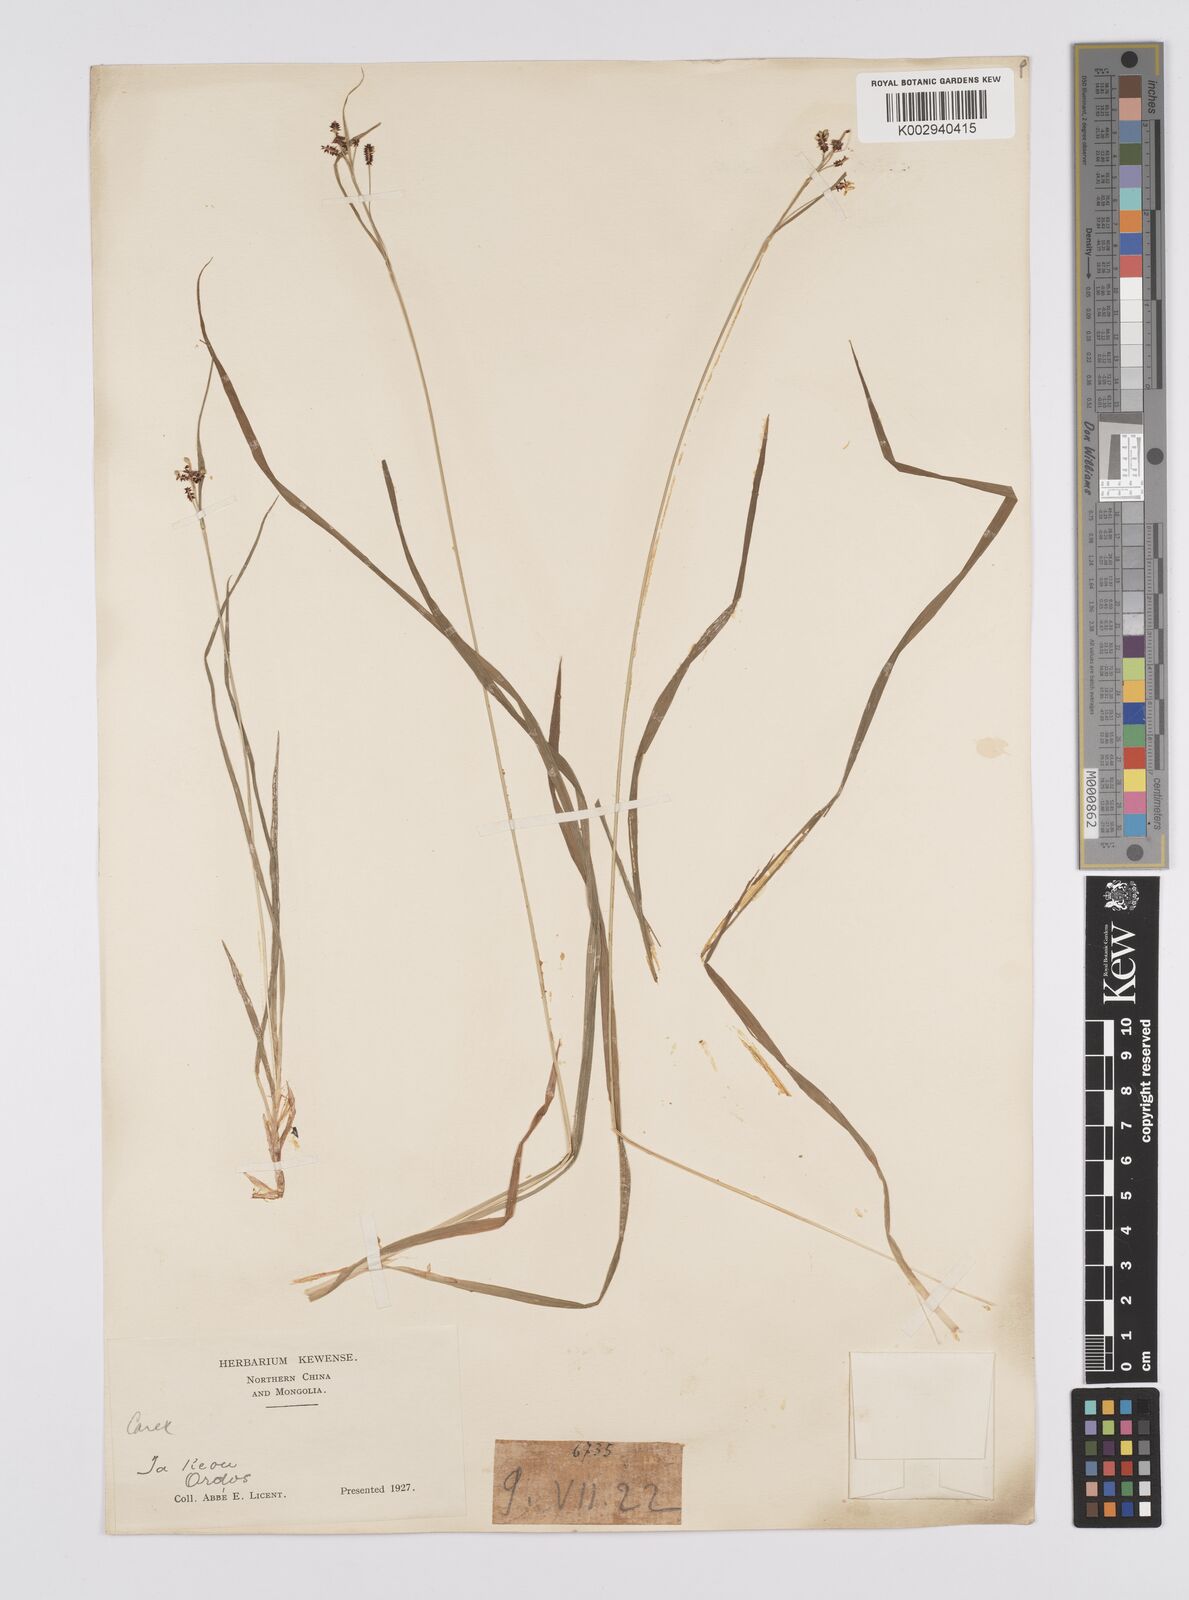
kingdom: Plantae
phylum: Tracheophyta
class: Liliopsida
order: Poales
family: Cyperaceae
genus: Carex
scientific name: Carex lehmannii
